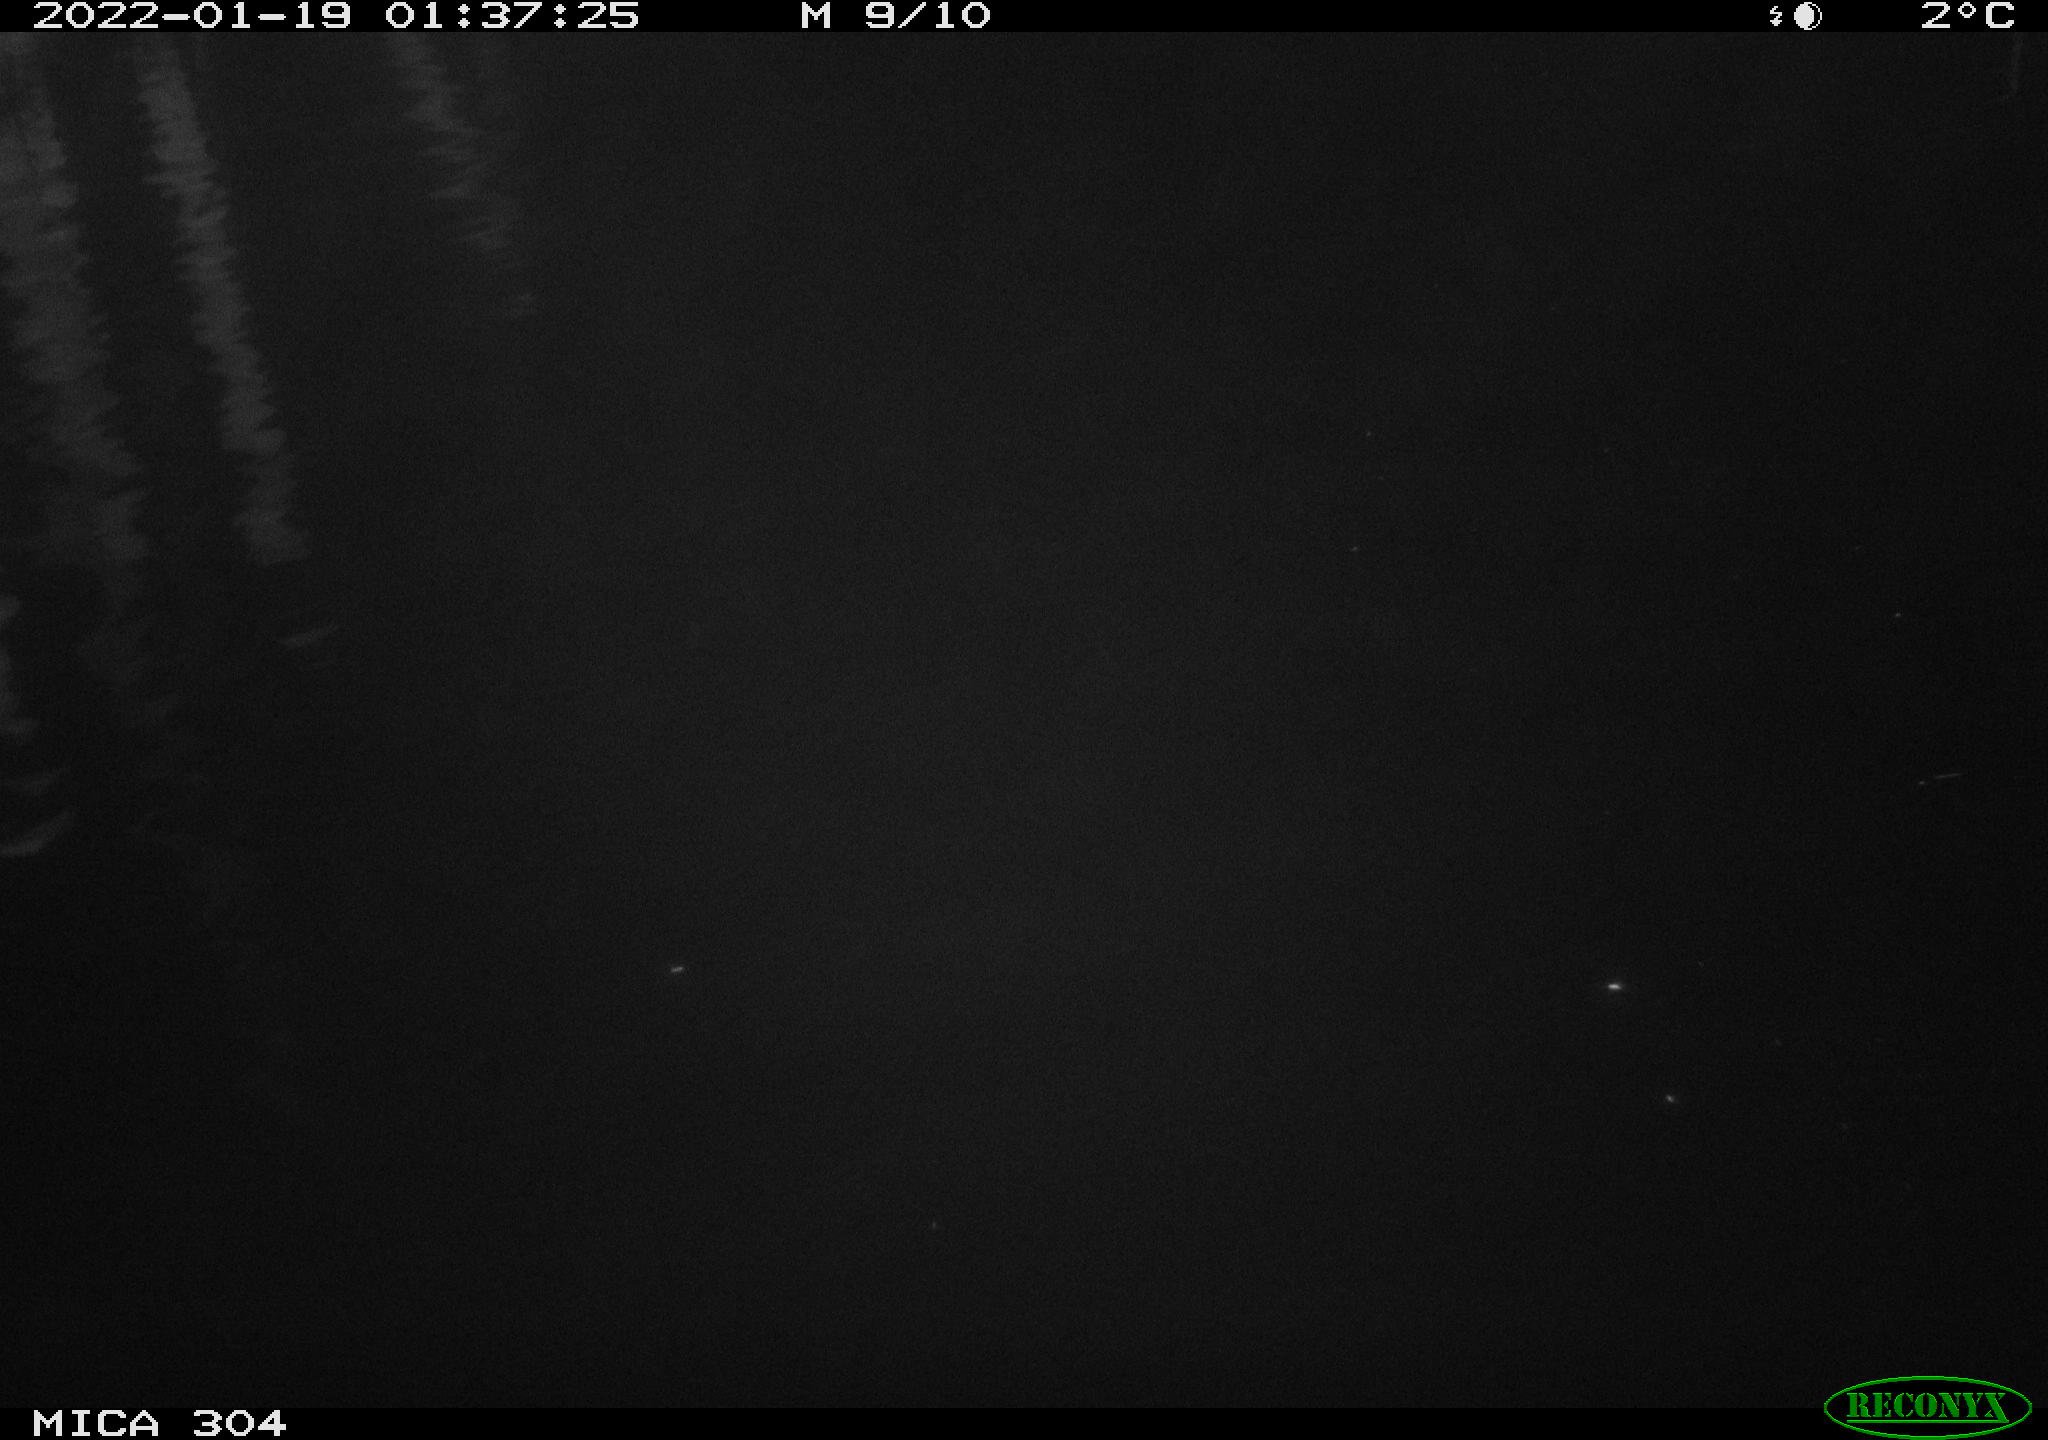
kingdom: Animalia
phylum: Chordata
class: Mammalia
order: Rodentia
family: Cricetidae
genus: Ondatra
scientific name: Ondatra zibethicus
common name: Muskrat
